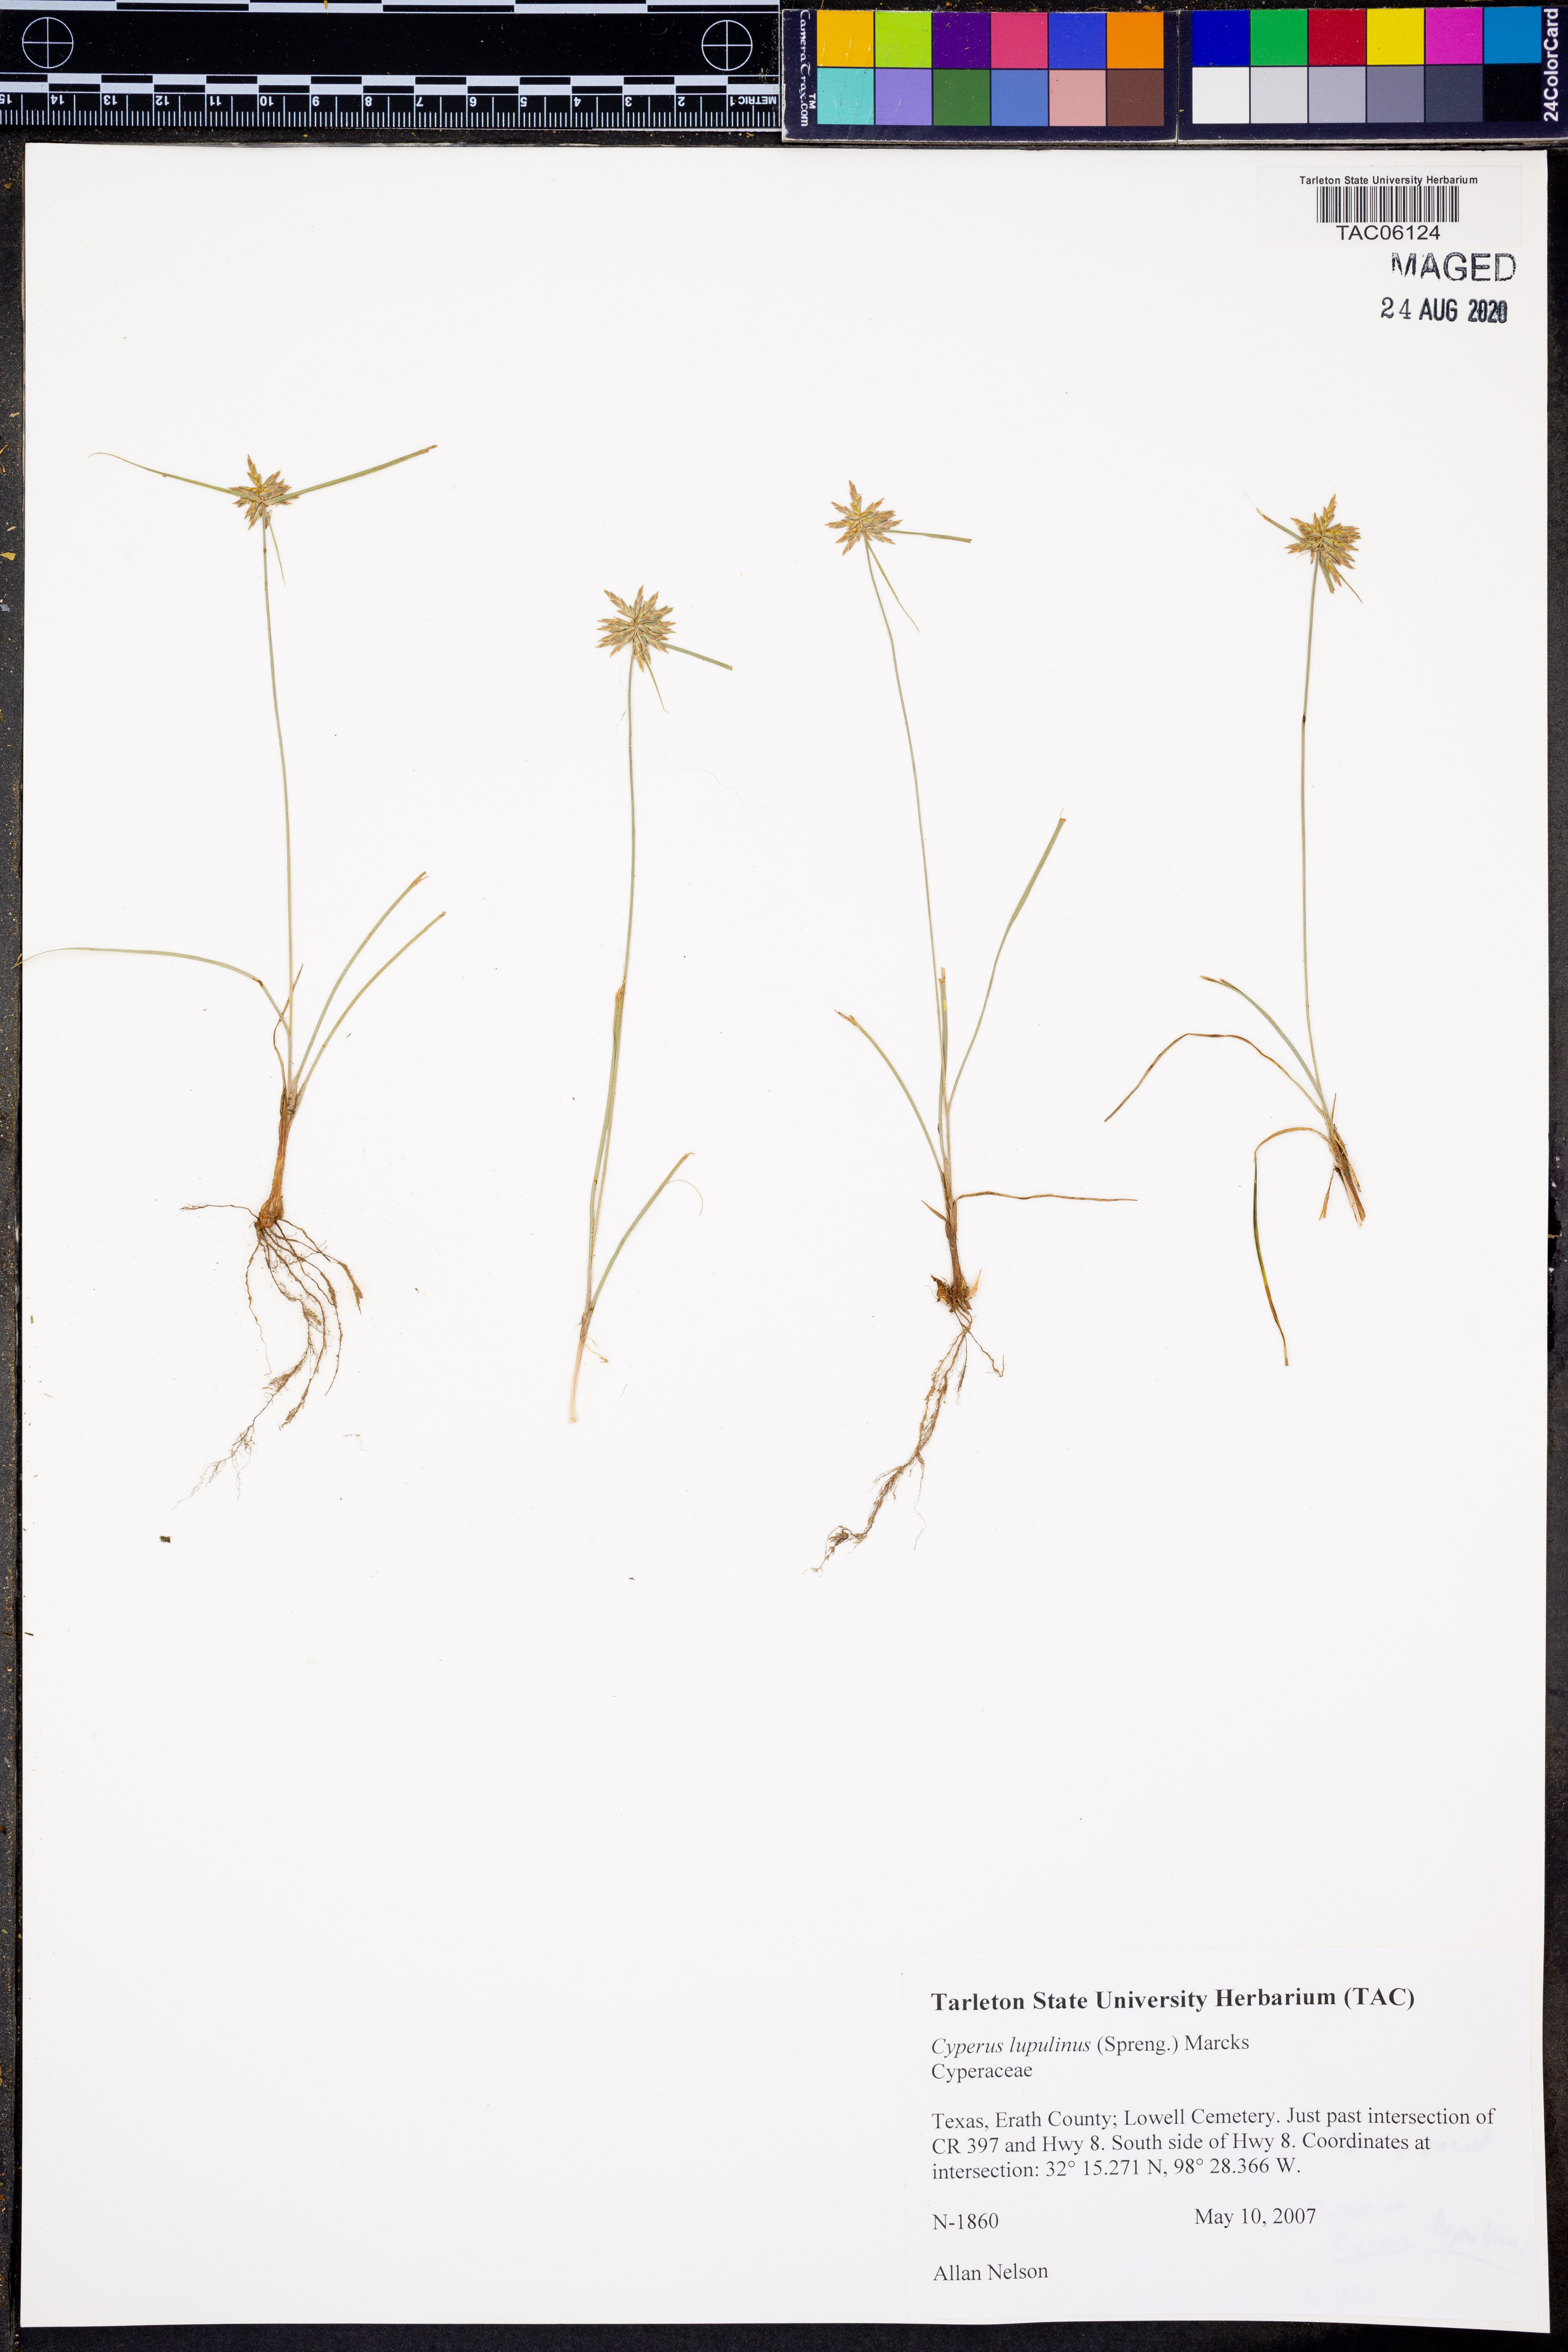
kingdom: Plantae
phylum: Tracheophyta
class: Liliopsida
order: Poales
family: Cyperaceae
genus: Cyperus
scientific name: Cyperus lupulinus
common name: Great plains flatsedge
